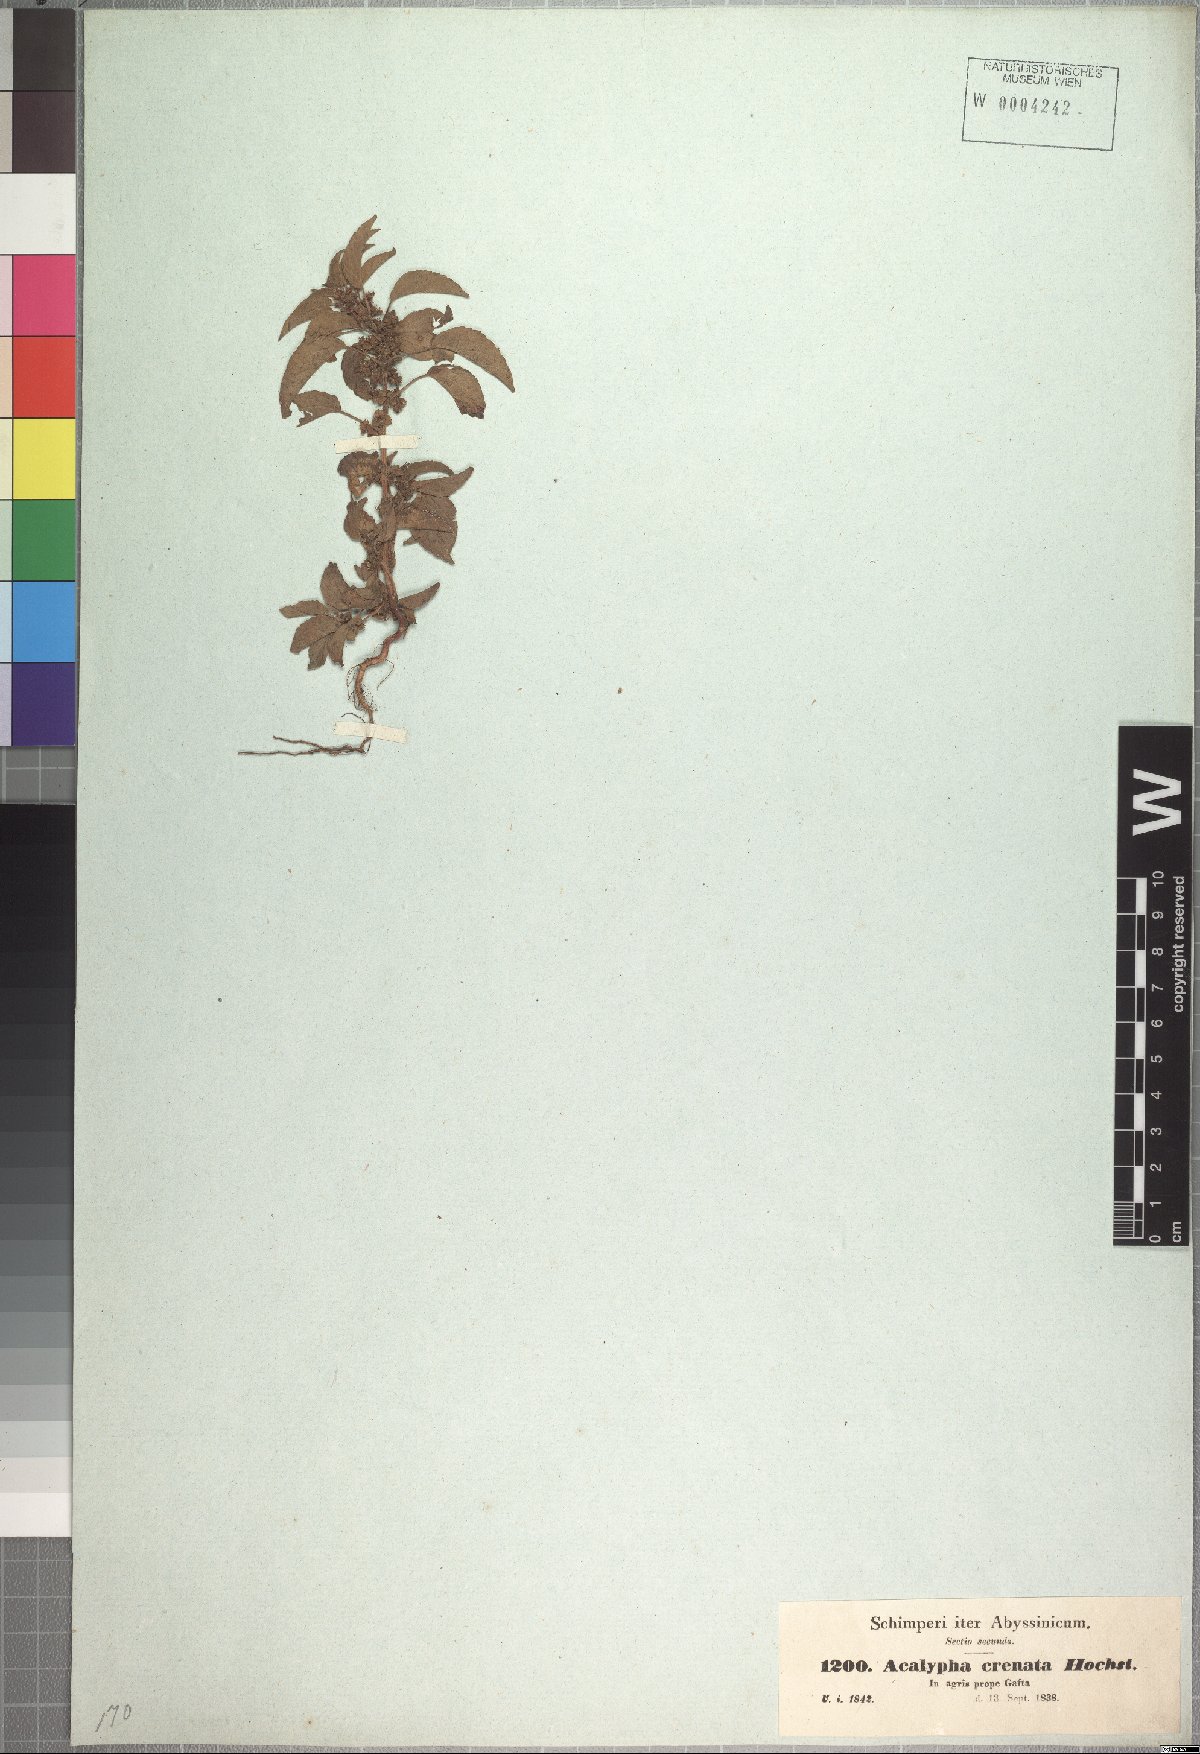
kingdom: Plantae
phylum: Tracheophyta
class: Magnoliopsida
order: Malpighiales
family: Euphorbiaceae
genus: Acalypha
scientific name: Acalypha crenata
